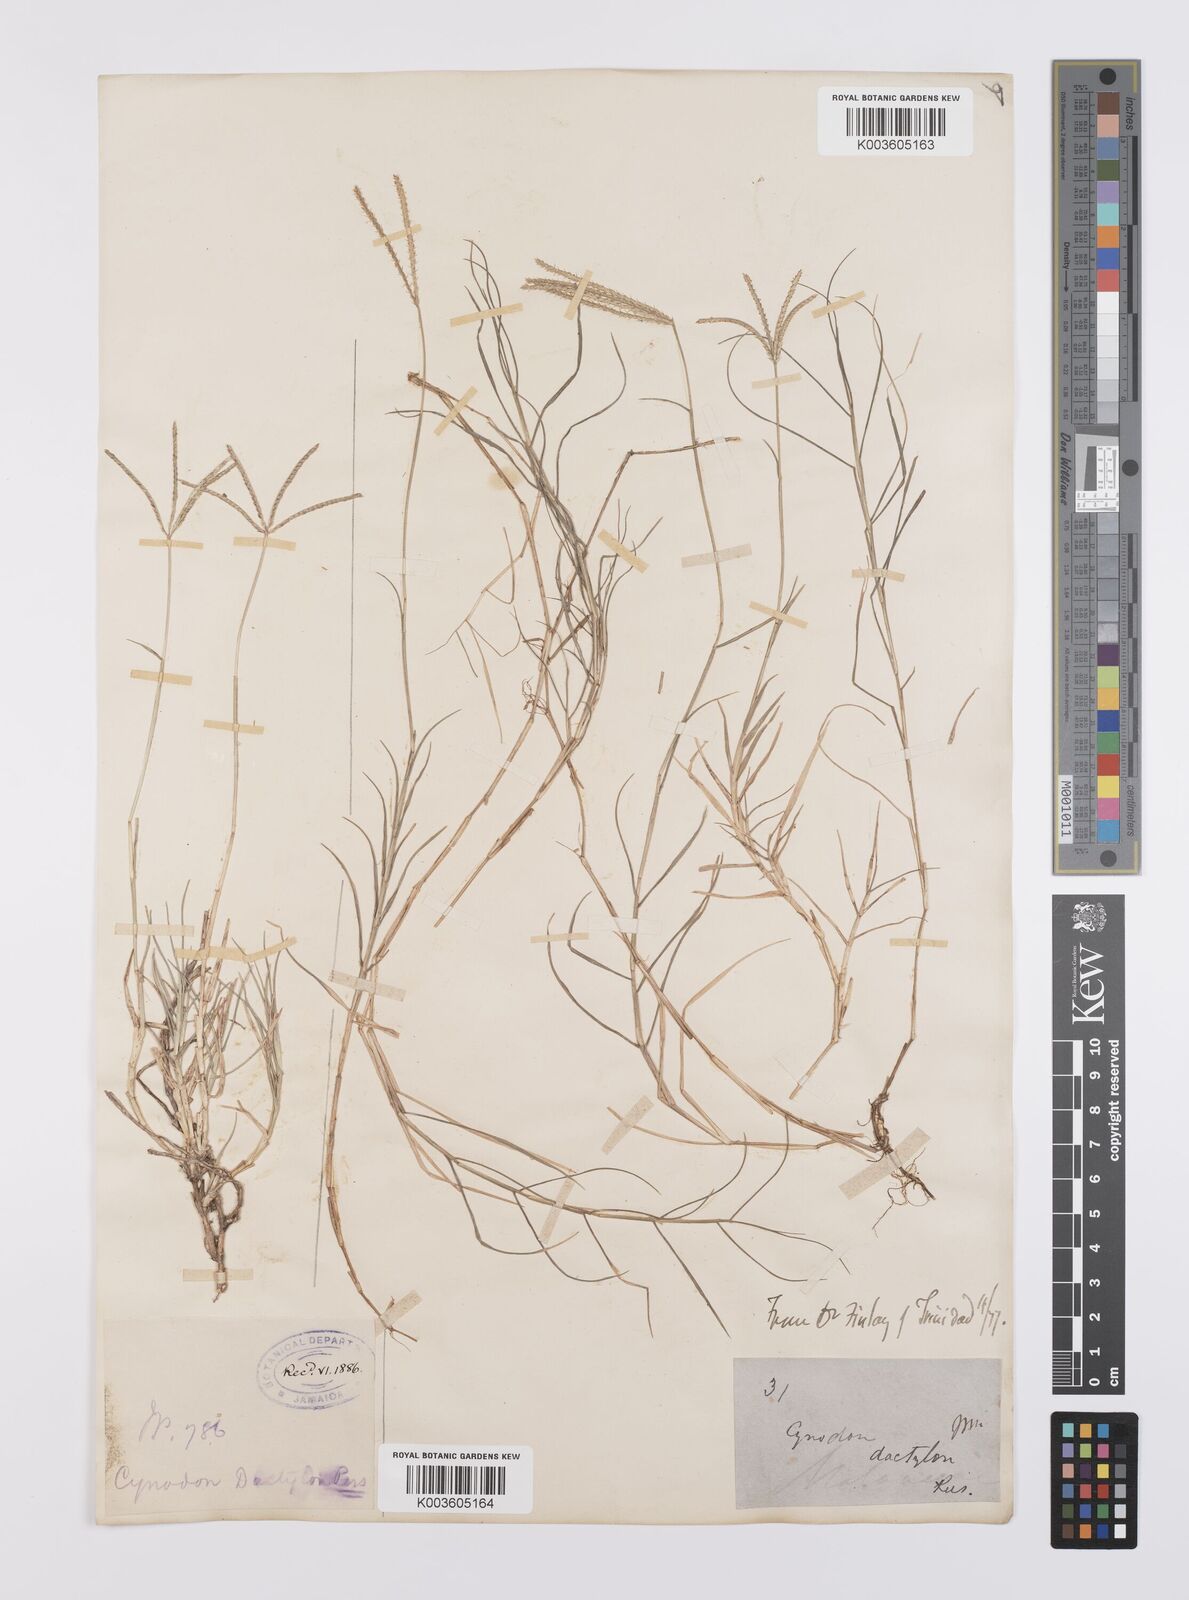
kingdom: Plantae
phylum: Tracheophyta
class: Liliopsida
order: Poales
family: Poaceae
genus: Cynodon
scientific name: Cynodon dactylon
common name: Bermuda grass
